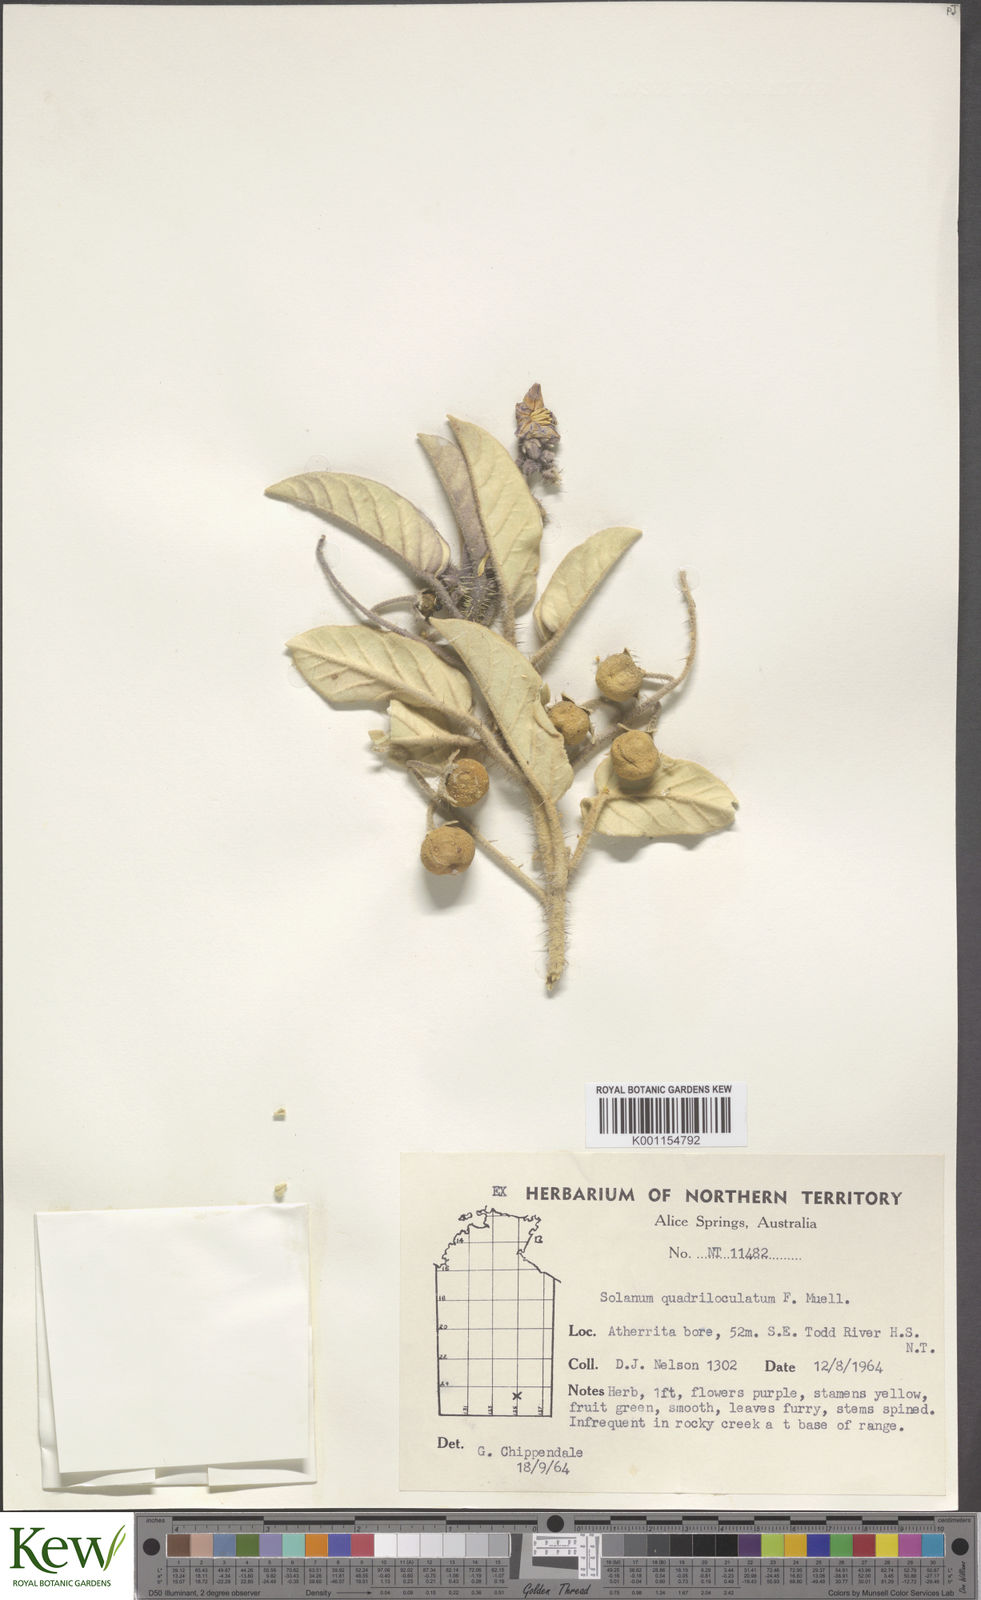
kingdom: Plantae
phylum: Tracheophyta
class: Magnoliopsida
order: Solanales
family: Solanaceae
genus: Solanum
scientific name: Solanum quadriloculatum
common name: Wild tomato
